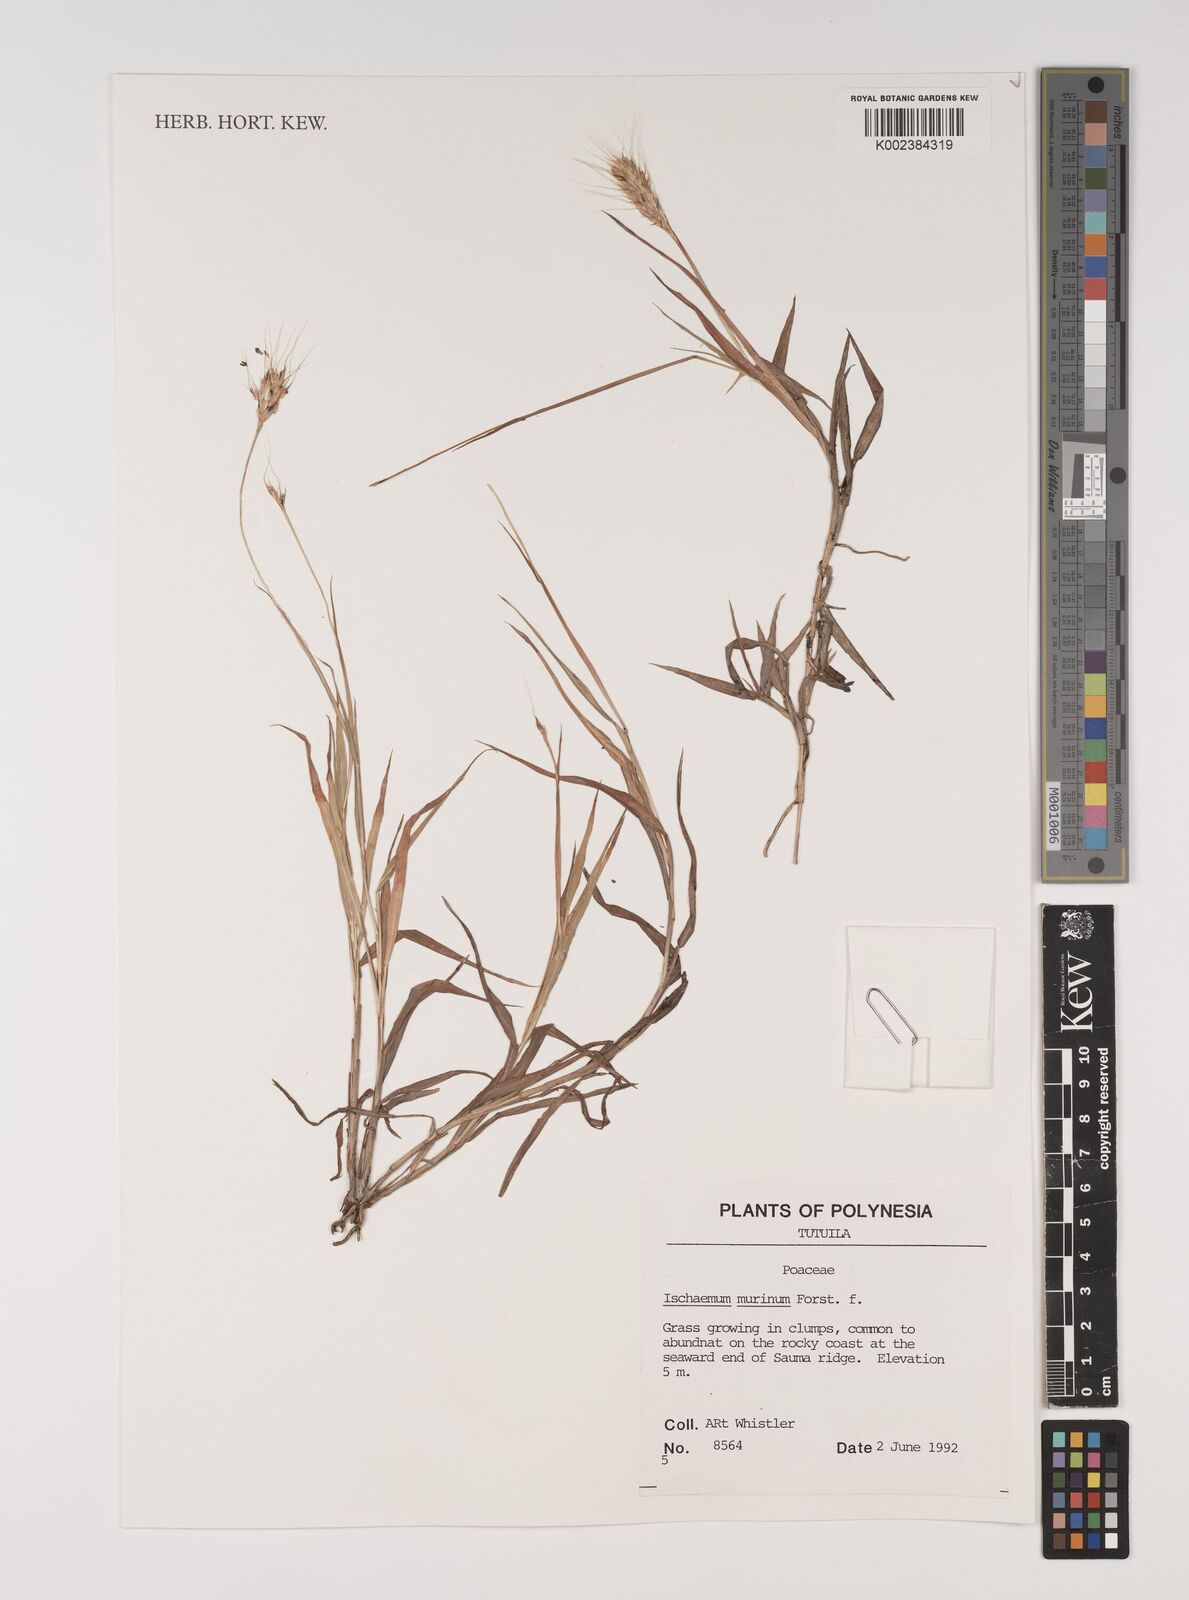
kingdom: Plantae
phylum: Tracheophyta
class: Liliopsida
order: Poales
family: Poaceae
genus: Ischaemum
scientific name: Ischaemum murinum
